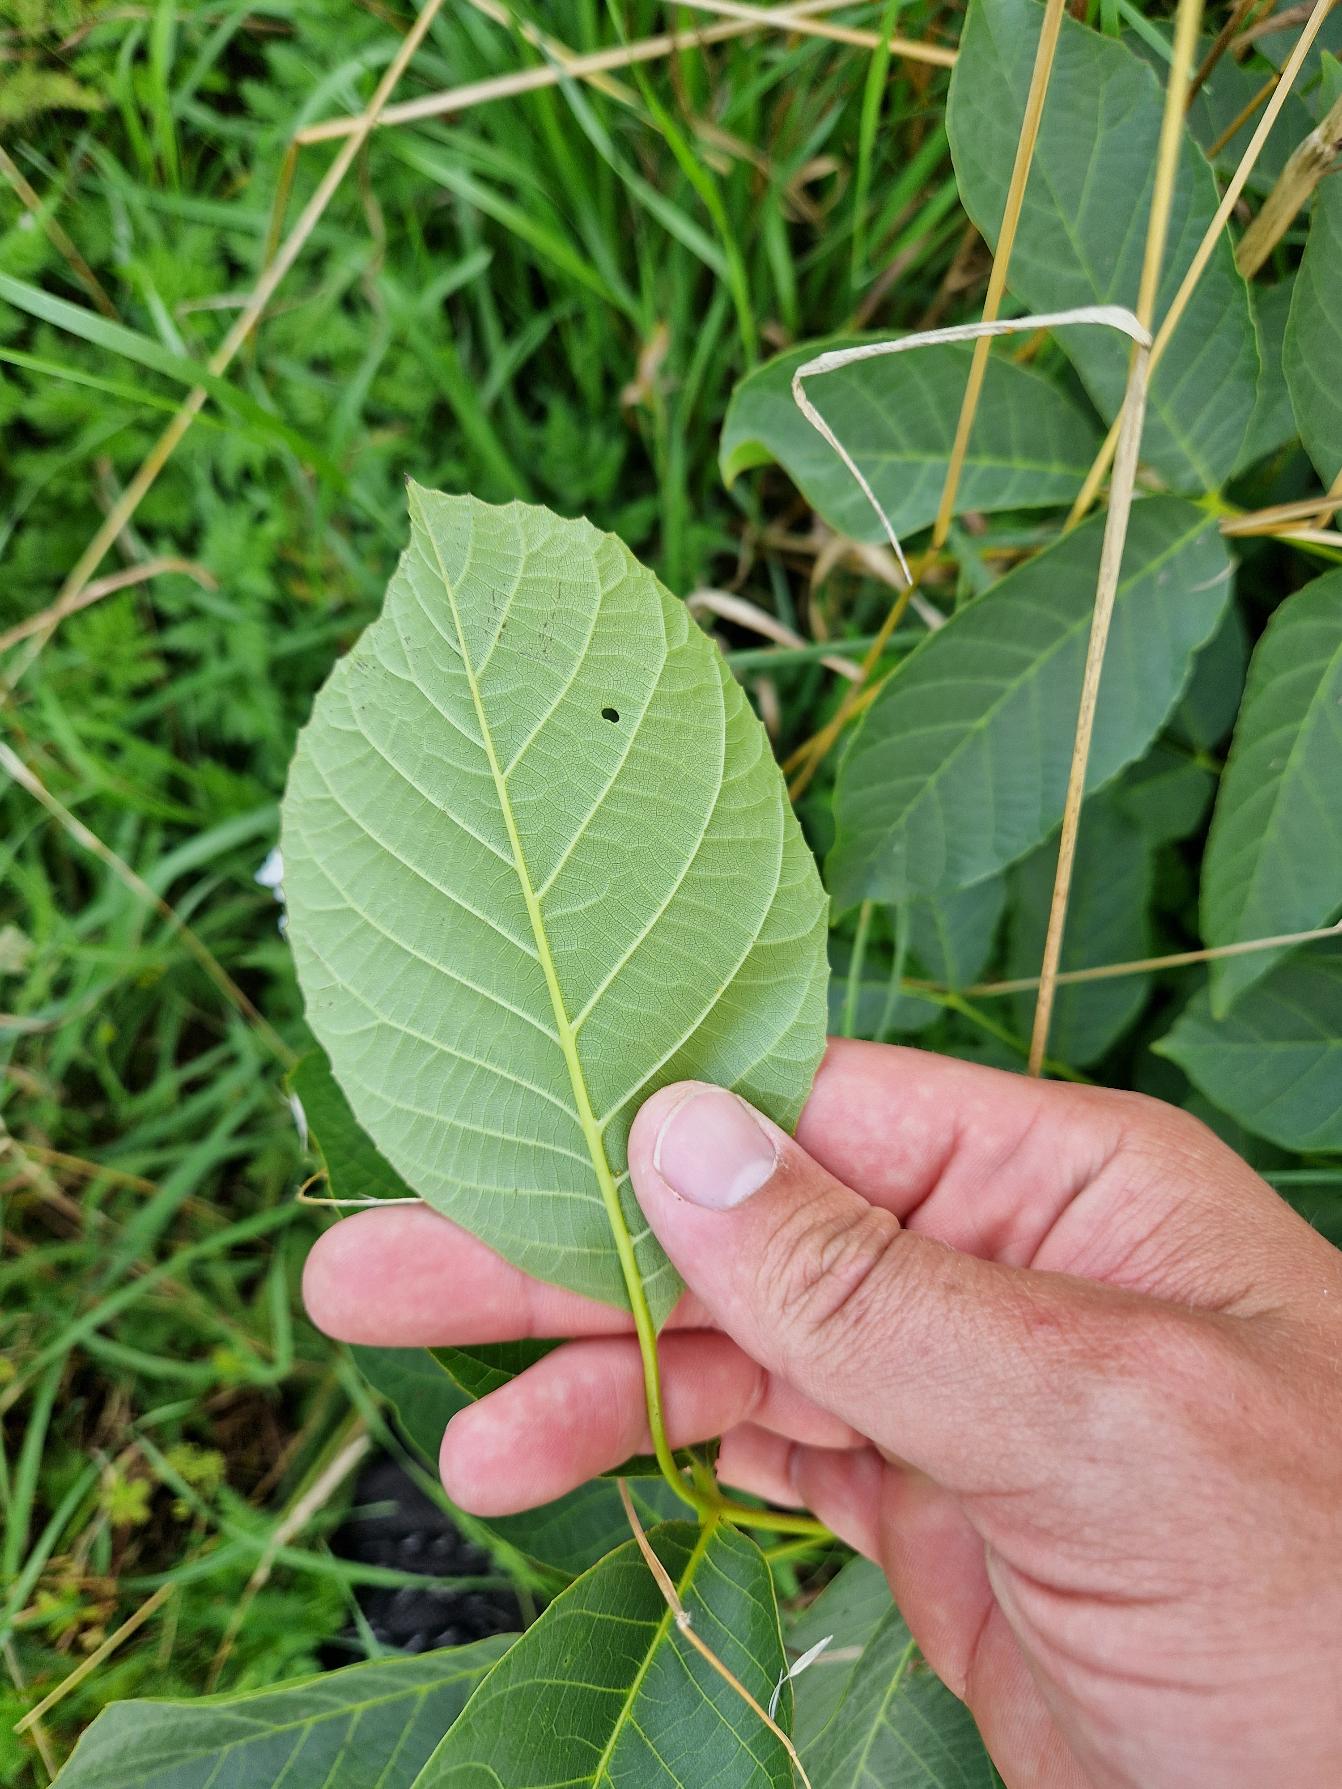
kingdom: Plantae
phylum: Tracheophyta
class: Magnoliopsida
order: Fagales
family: Juglandaceae
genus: Juglans
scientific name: Juglans regia
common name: Almindelig valnød
